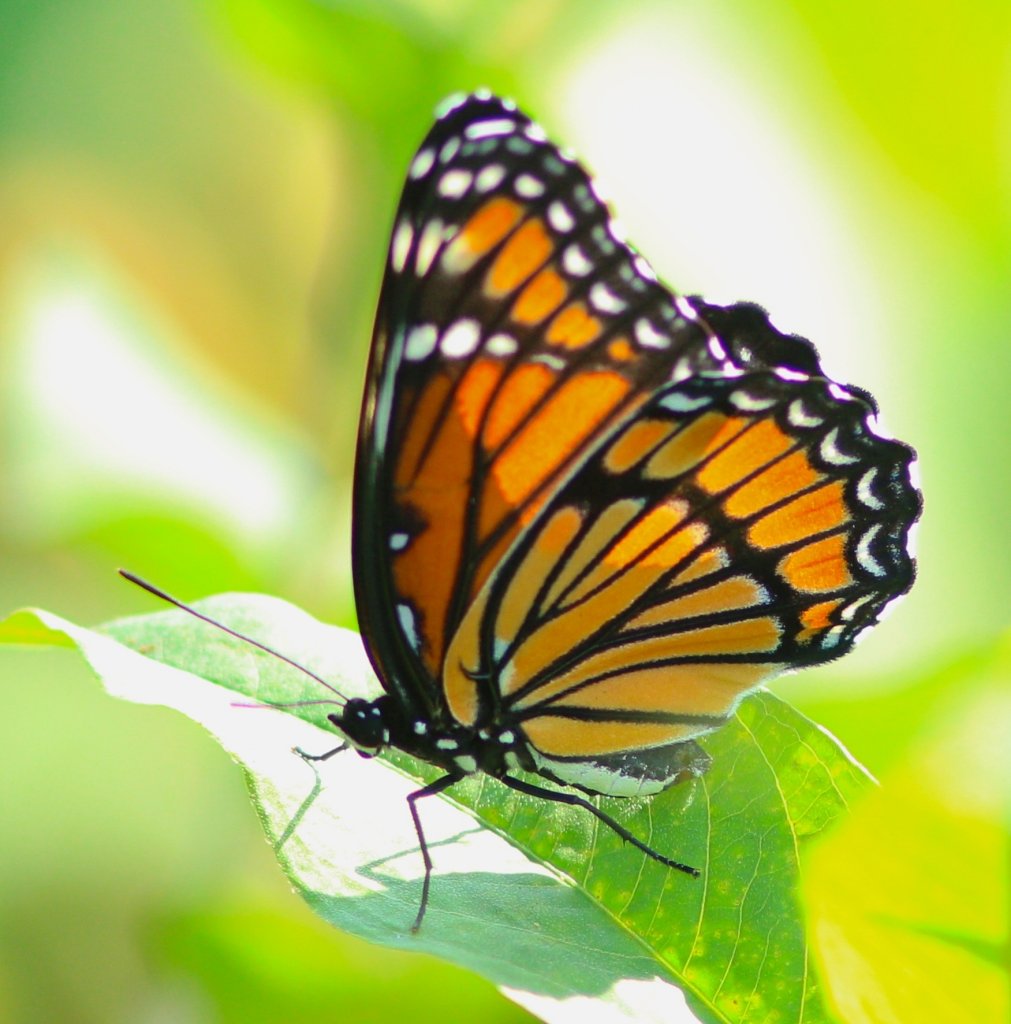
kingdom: Animalia
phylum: Arthropoda
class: Insecta
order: Lepidoptera
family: Nymphalidae
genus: Limenitis
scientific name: Limenitis archippus
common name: Viceroy
